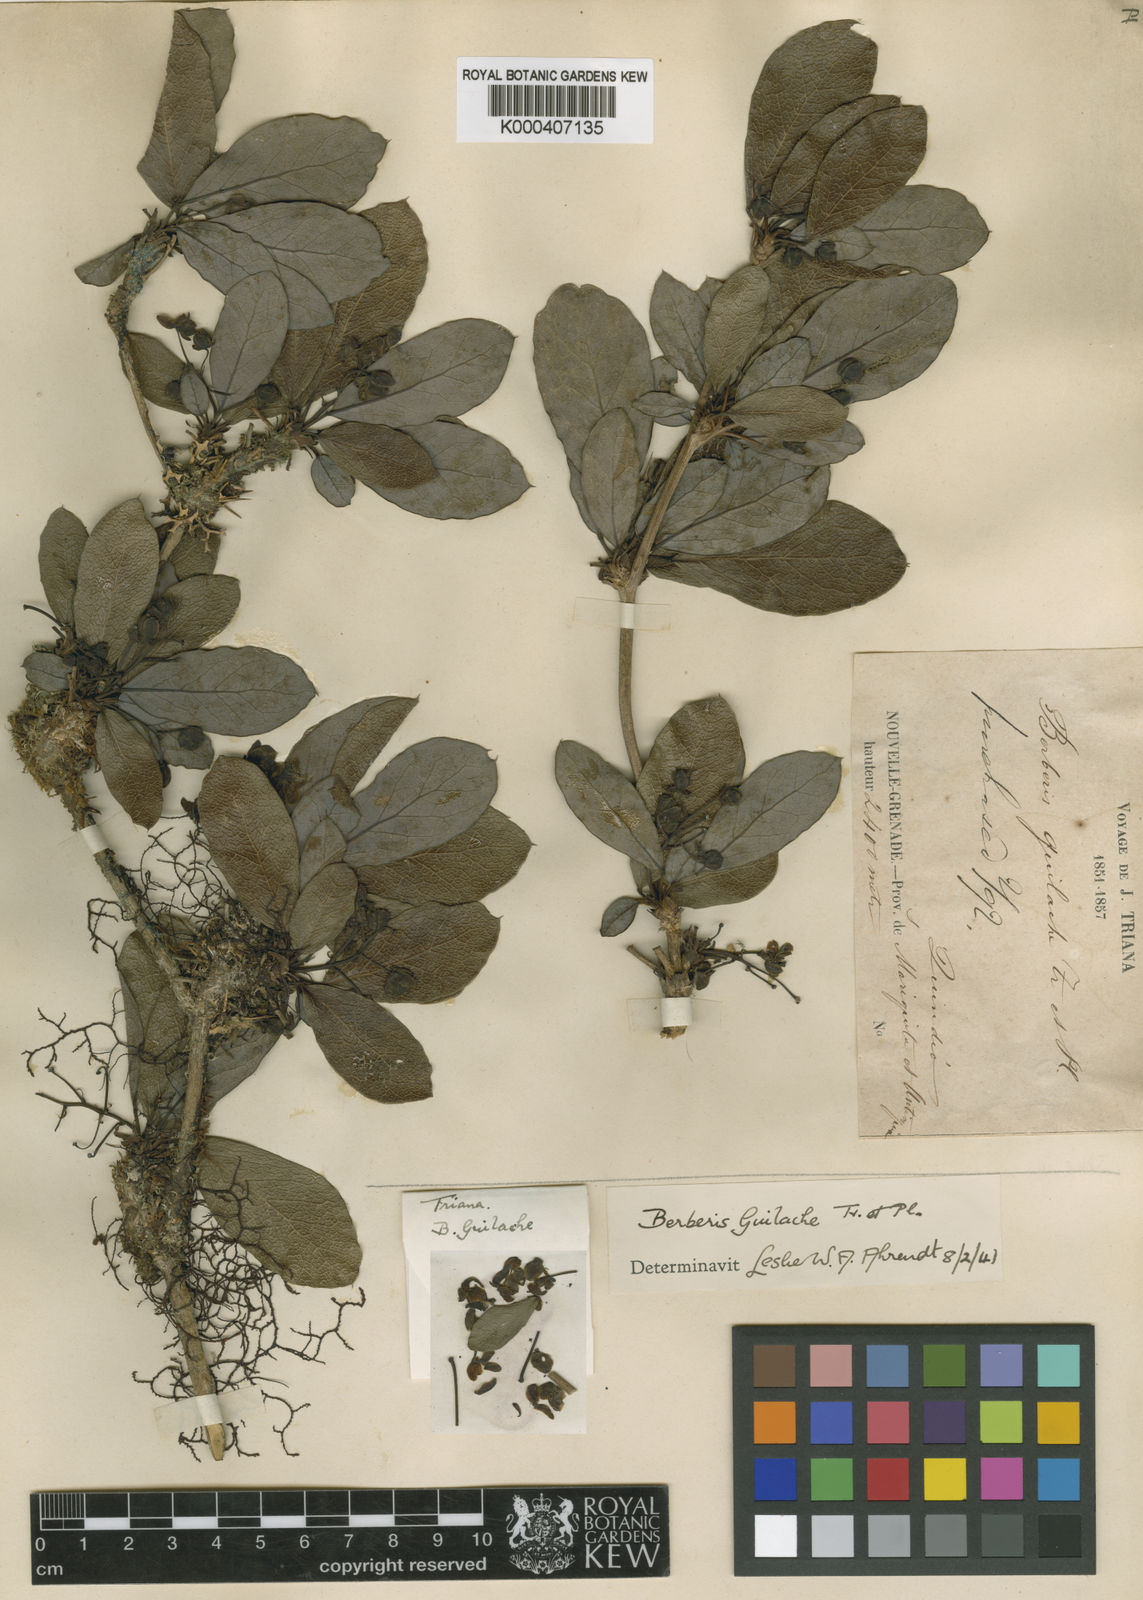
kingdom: Plantae
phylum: Tracheophyta
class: Magnoliopsida
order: Ranunculales
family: Berberidaceae
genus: Berberis
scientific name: Berberis guilache
